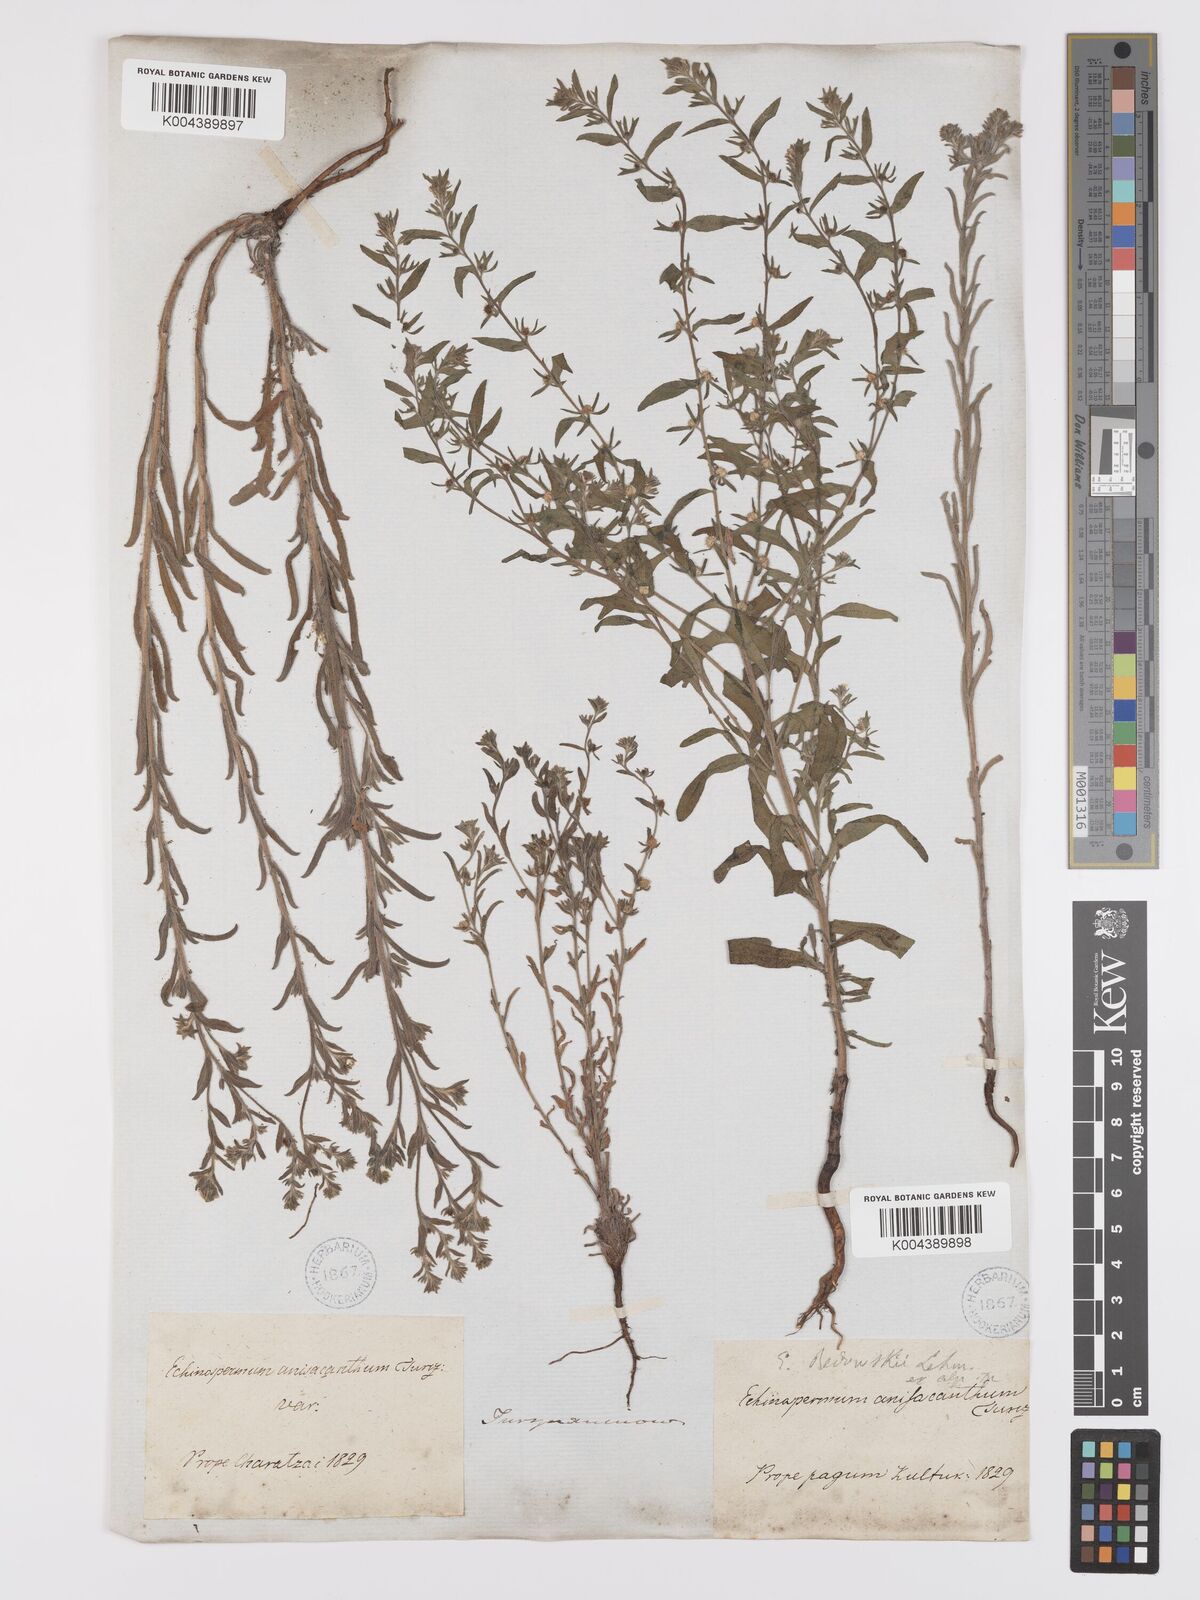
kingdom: Plantae
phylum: Tracheophyta
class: Magnoliopsida
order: Boraginales
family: Boraginaceae
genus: Lappula
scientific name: Lappula redowskii
